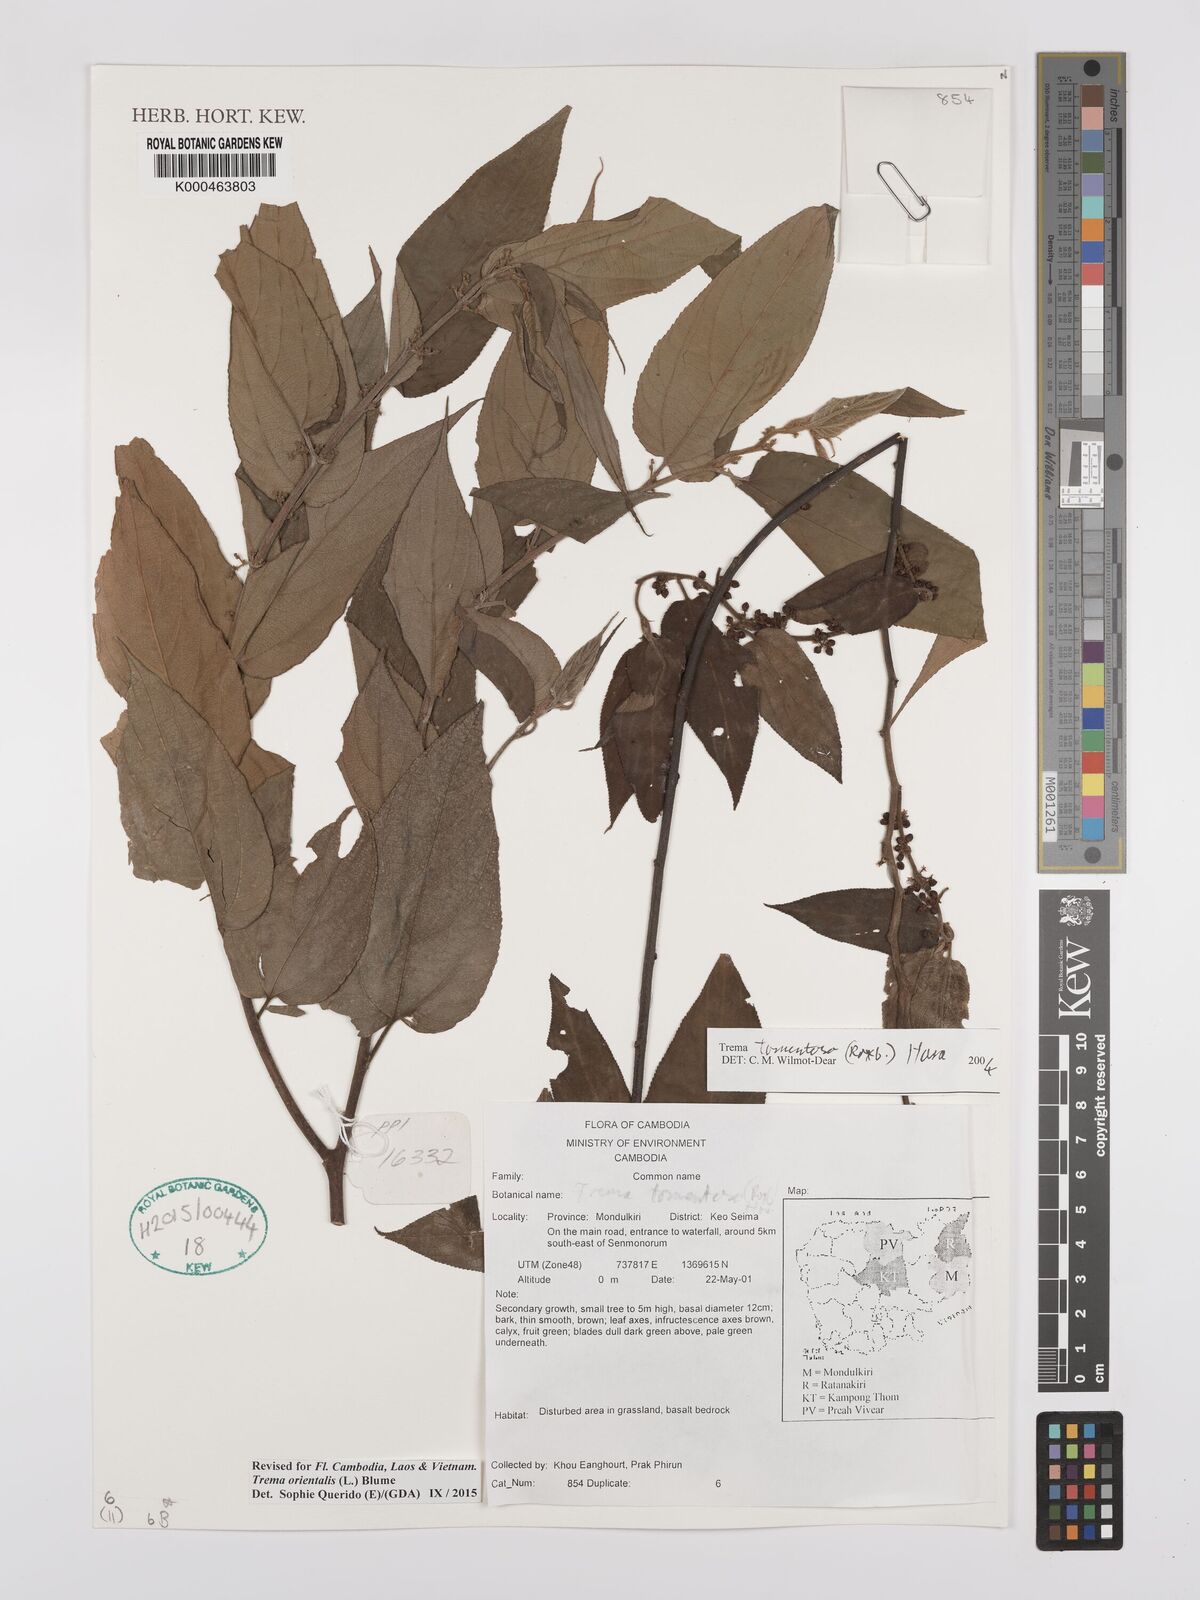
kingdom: Plantae
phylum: Tracheophyta
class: Magnoliopsida
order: Rosales
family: Cannabaceae
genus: Trema
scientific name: Trema tomentosum
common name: Peach-leaf-poisonbush
